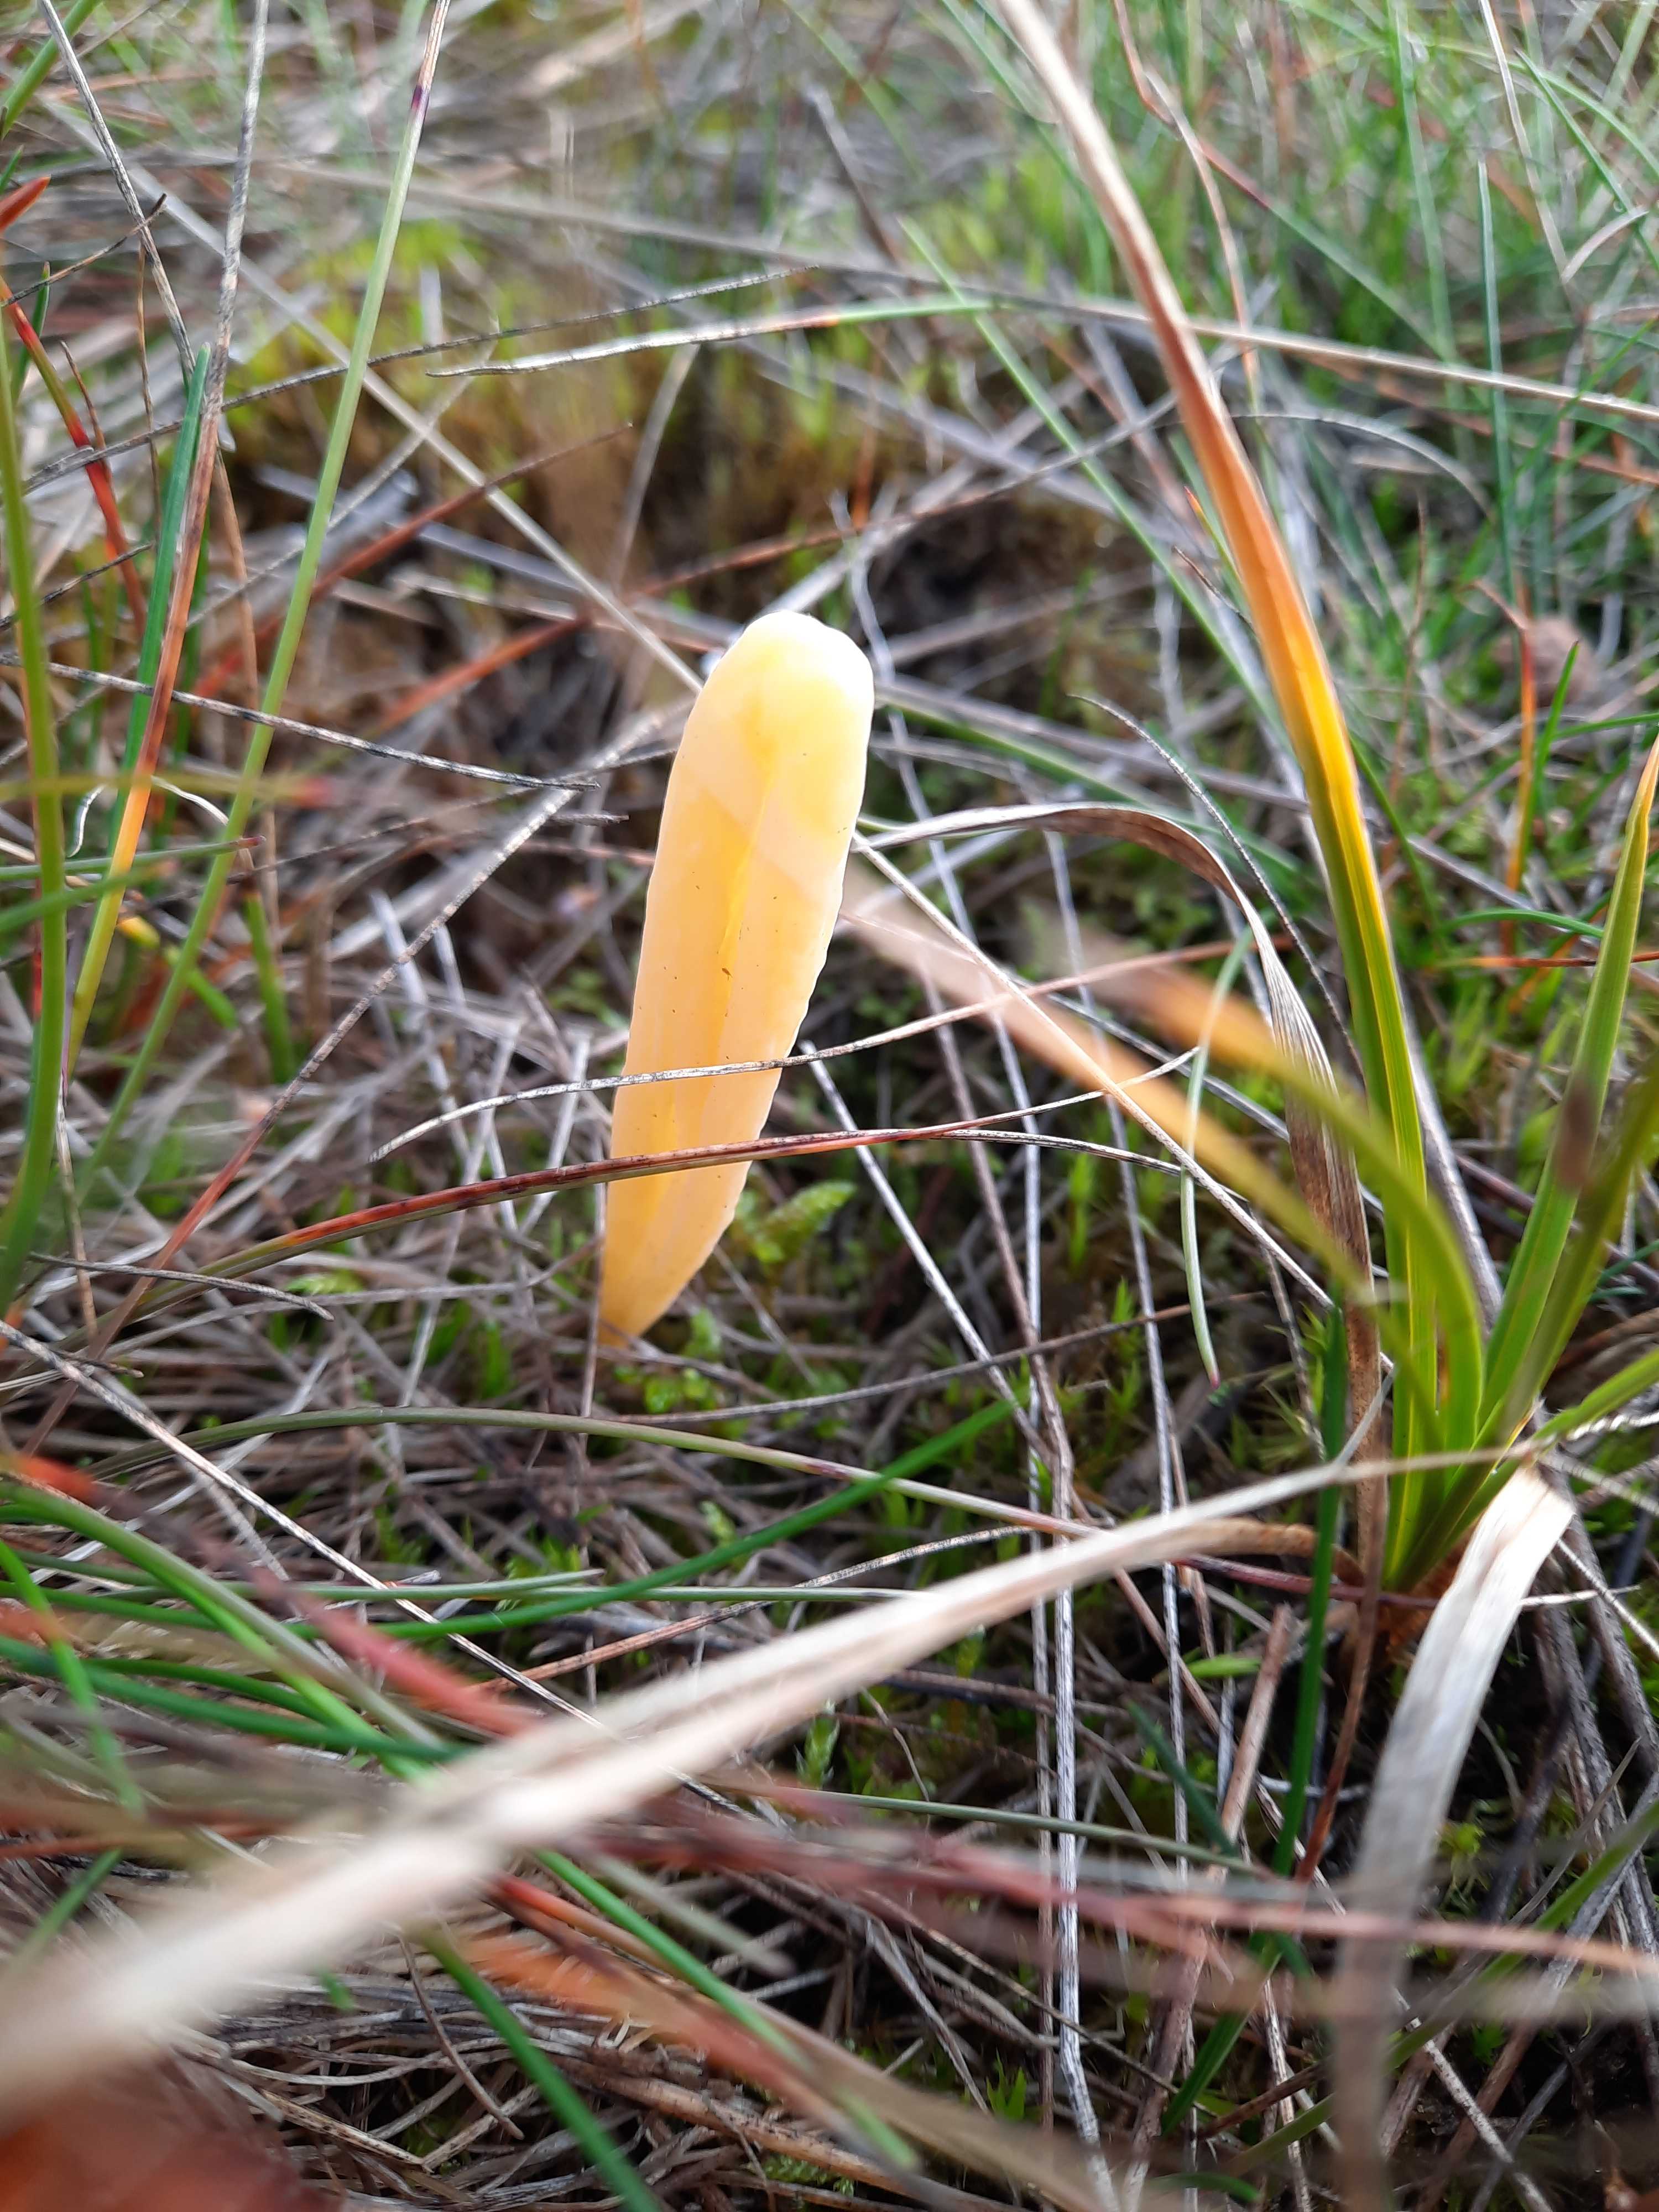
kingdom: Fungi
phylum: Basidiomycota
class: Agaricomycetes
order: Agaricales
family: Clavariaceae
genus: Clavaria
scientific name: Clavaria argillacea
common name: lerfarvet køllesvamp
